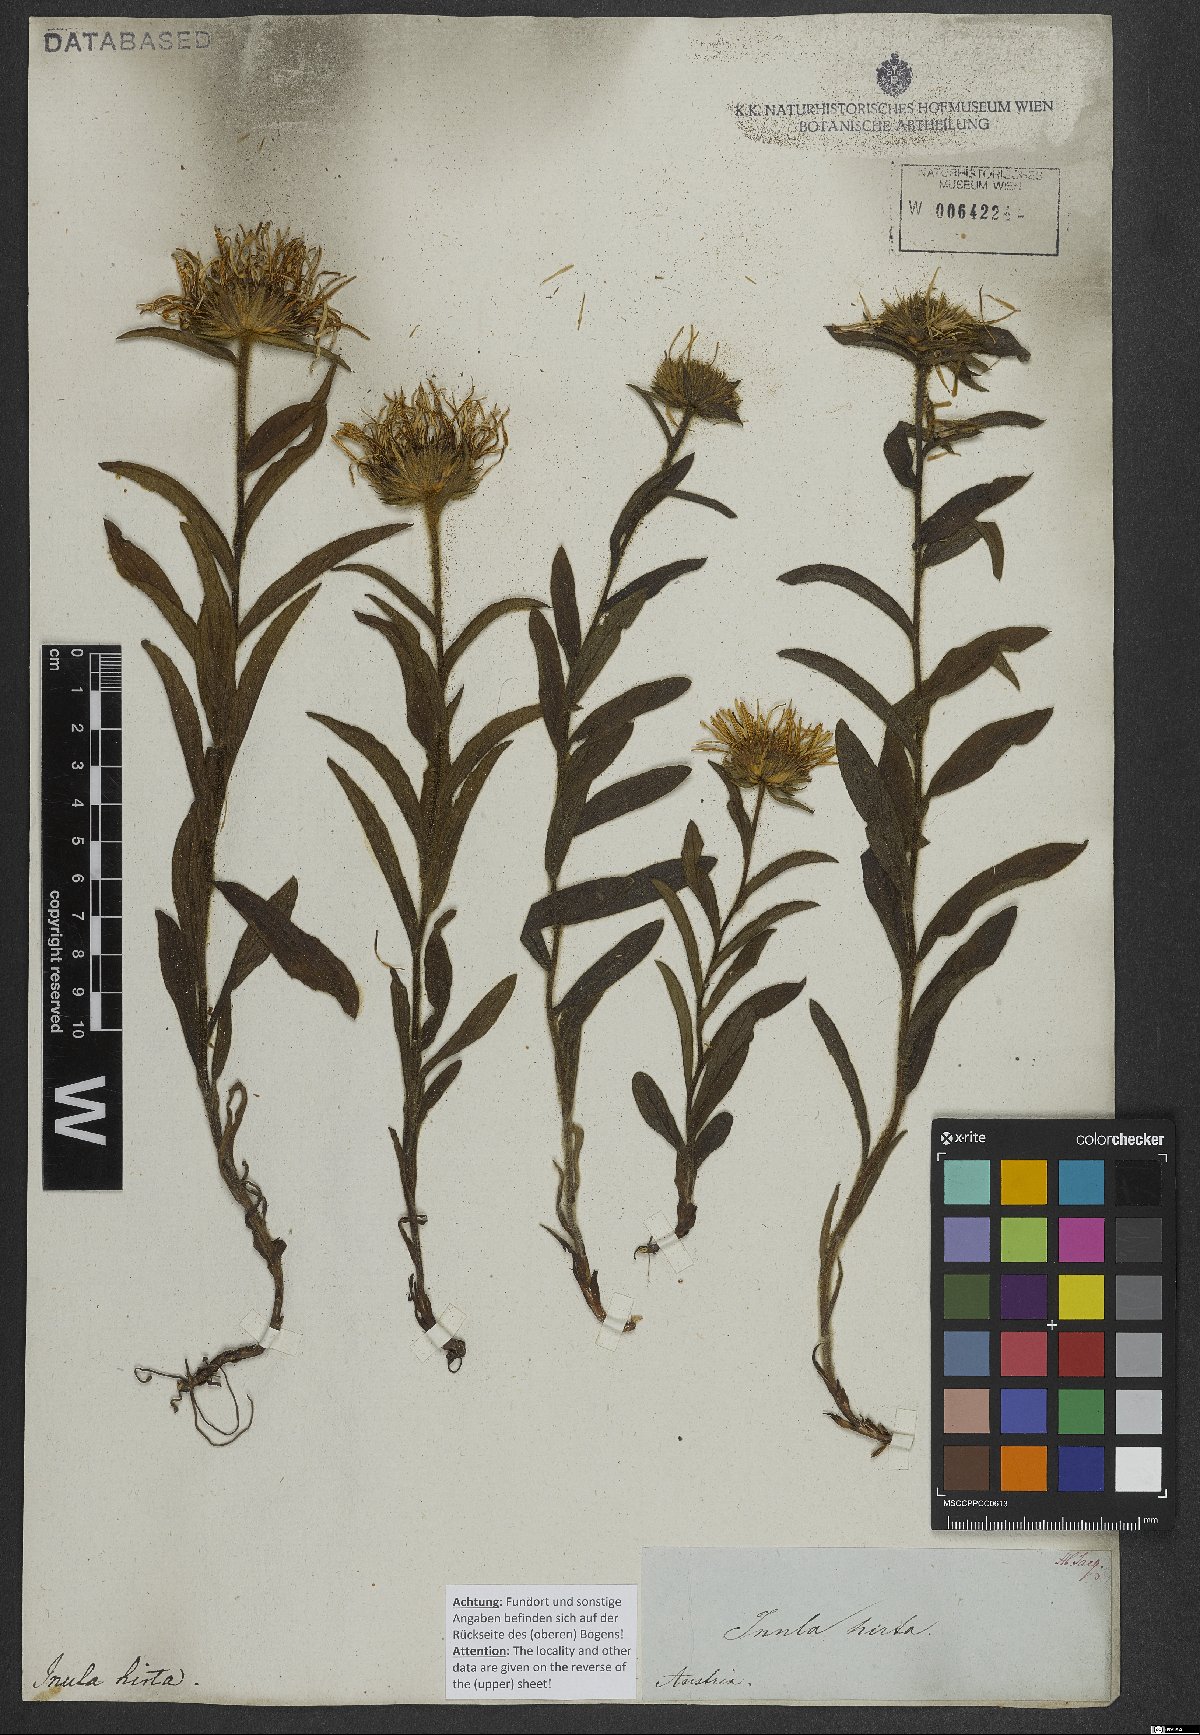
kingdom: Plantae
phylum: Tracheophyta
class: Magnoliopsida
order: Asterales
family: Asteraceae
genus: Pentanema
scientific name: Pentanema hirtum
